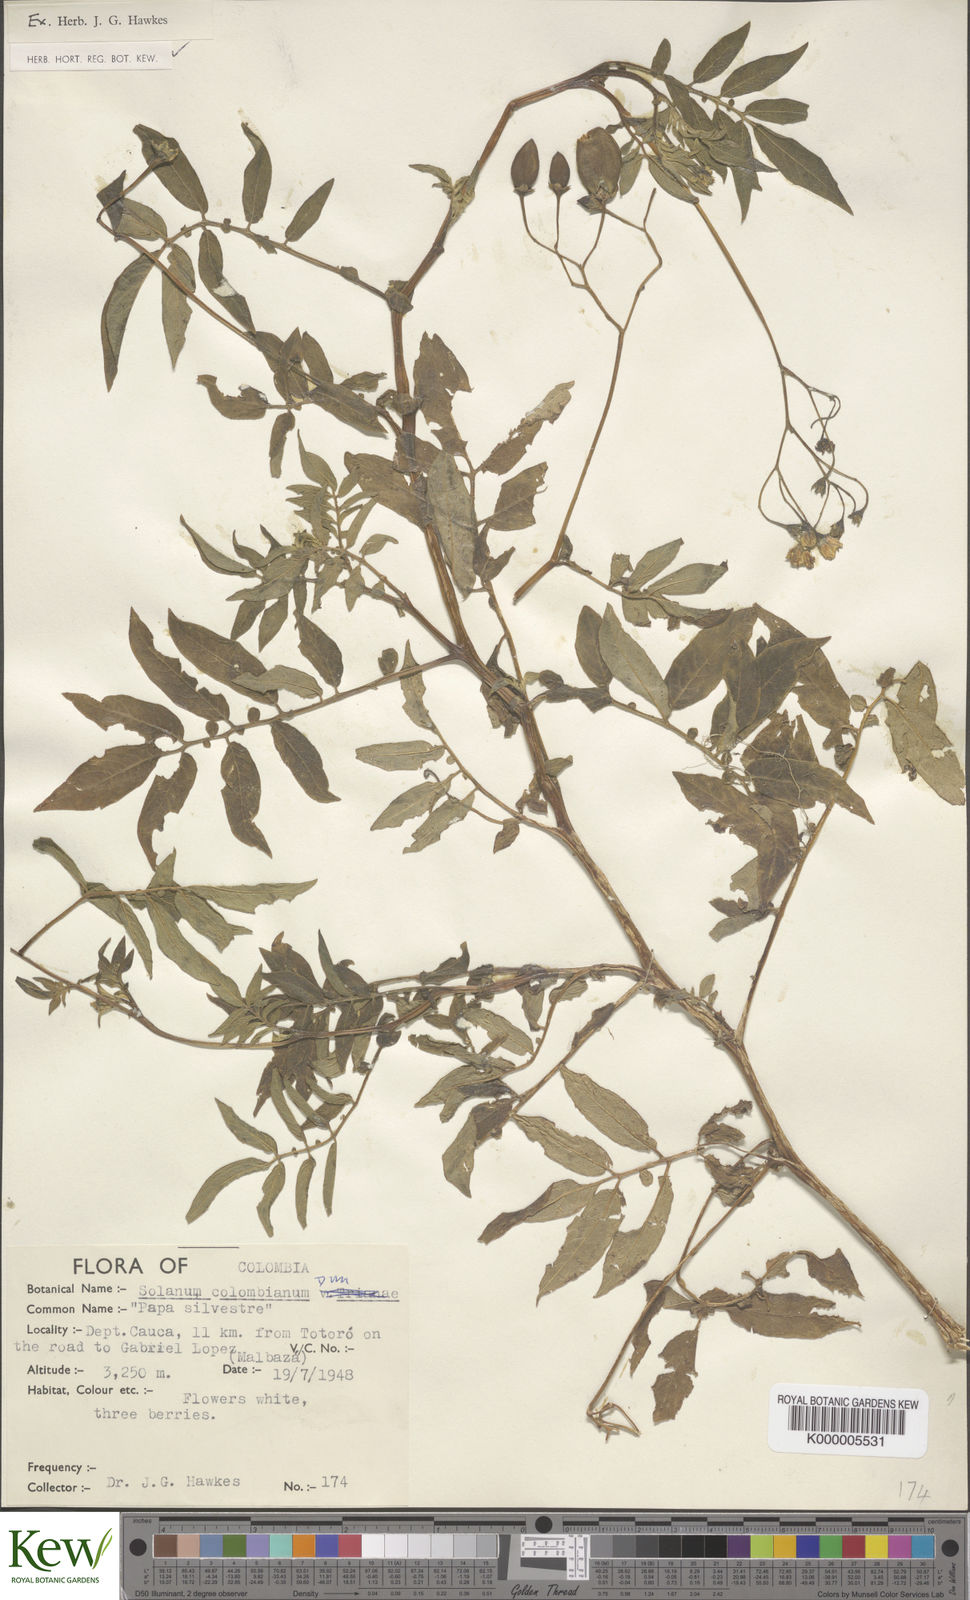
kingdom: Plantae
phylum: Tracheophyta
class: Magnoliopsida
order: Solanales
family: Solanaceae
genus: Solanum
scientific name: Solanum colombianum
